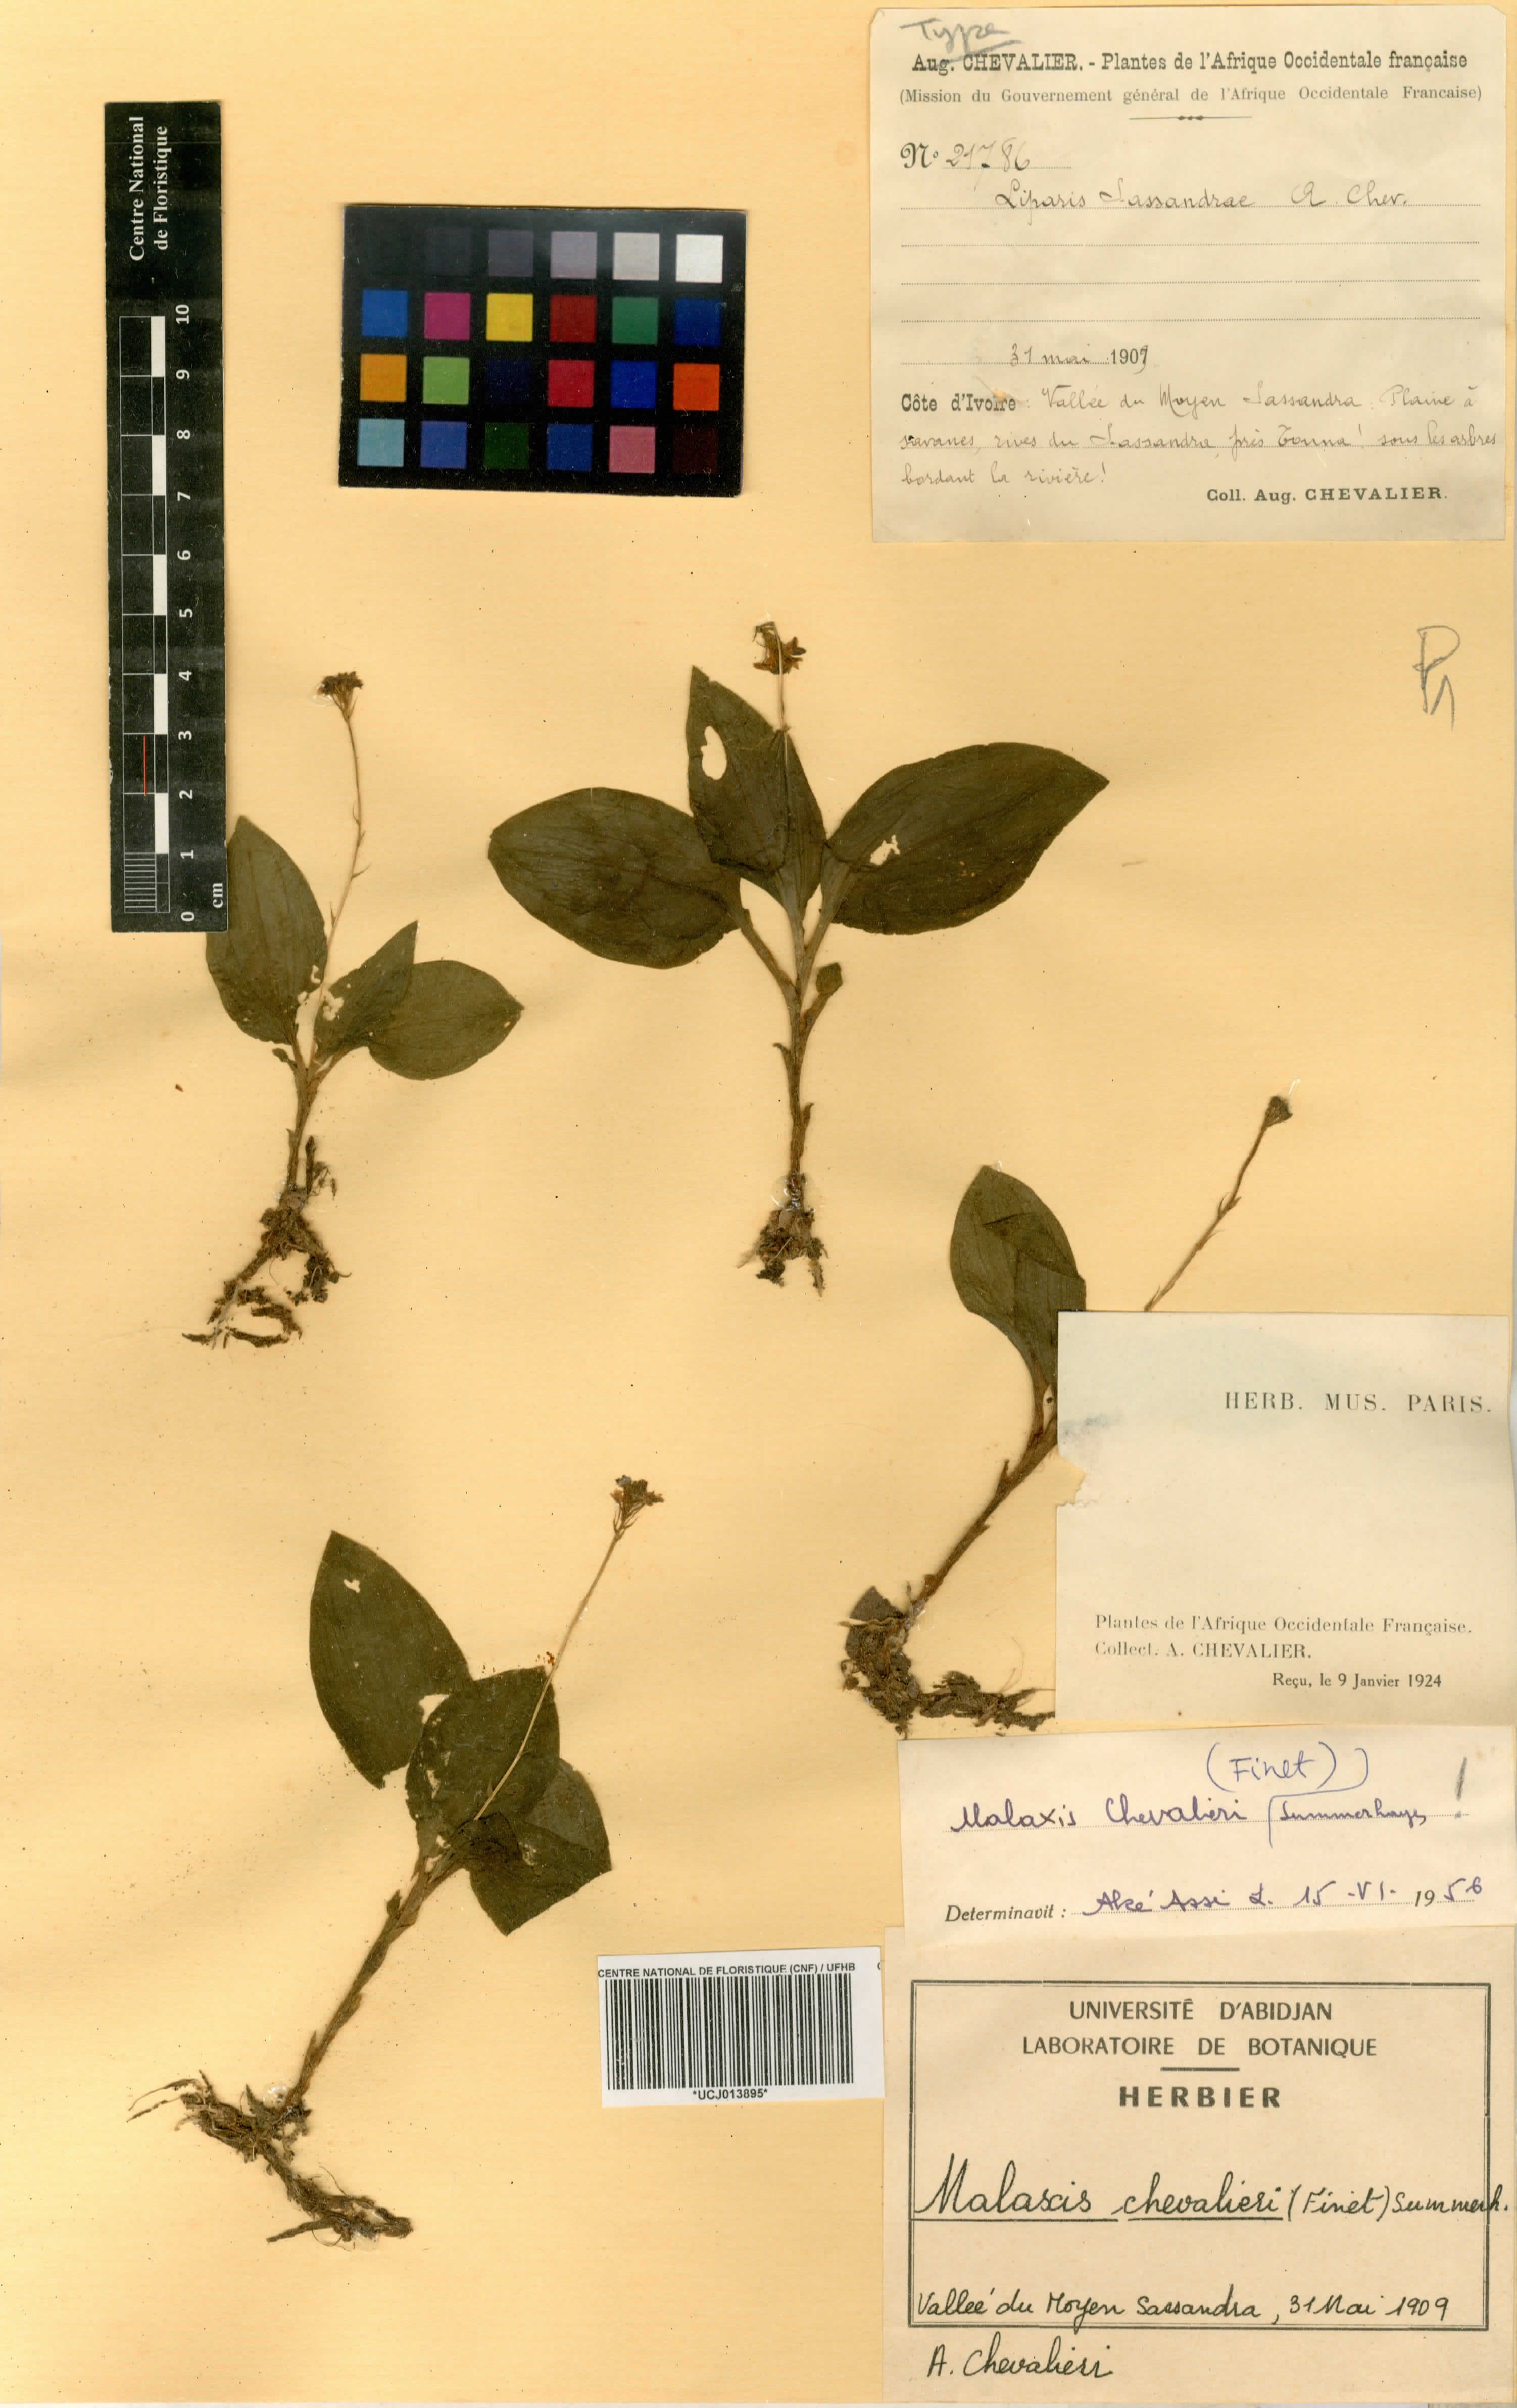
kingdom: Plantae
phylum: Tracheophyta
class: Liliopsida
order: Asparagales
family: Orchidaceae
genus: Malaxis
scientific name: Malaxis chevalieri
